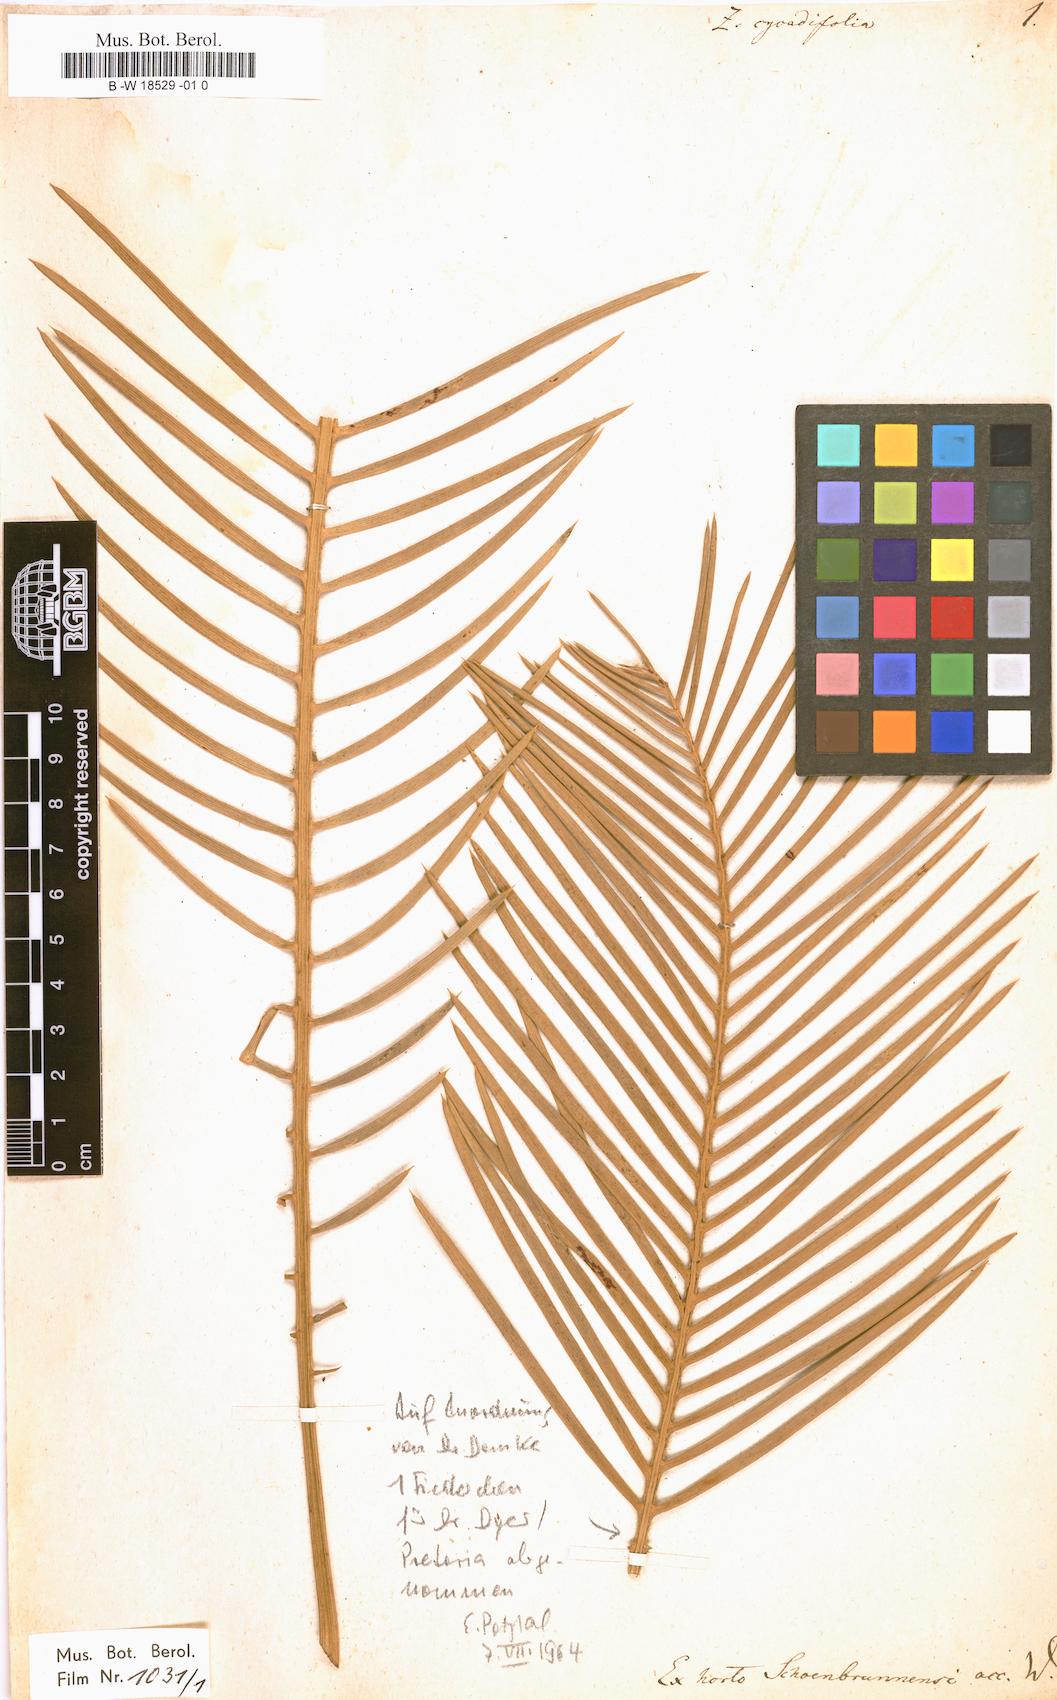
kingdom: Plantae
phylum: Tracheophyta
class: Cycadopsida
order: Cycadales
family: Zamiaceae
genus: Encephalartos
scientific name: Encephalartos cycadifolius
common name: Winterberg cycad
